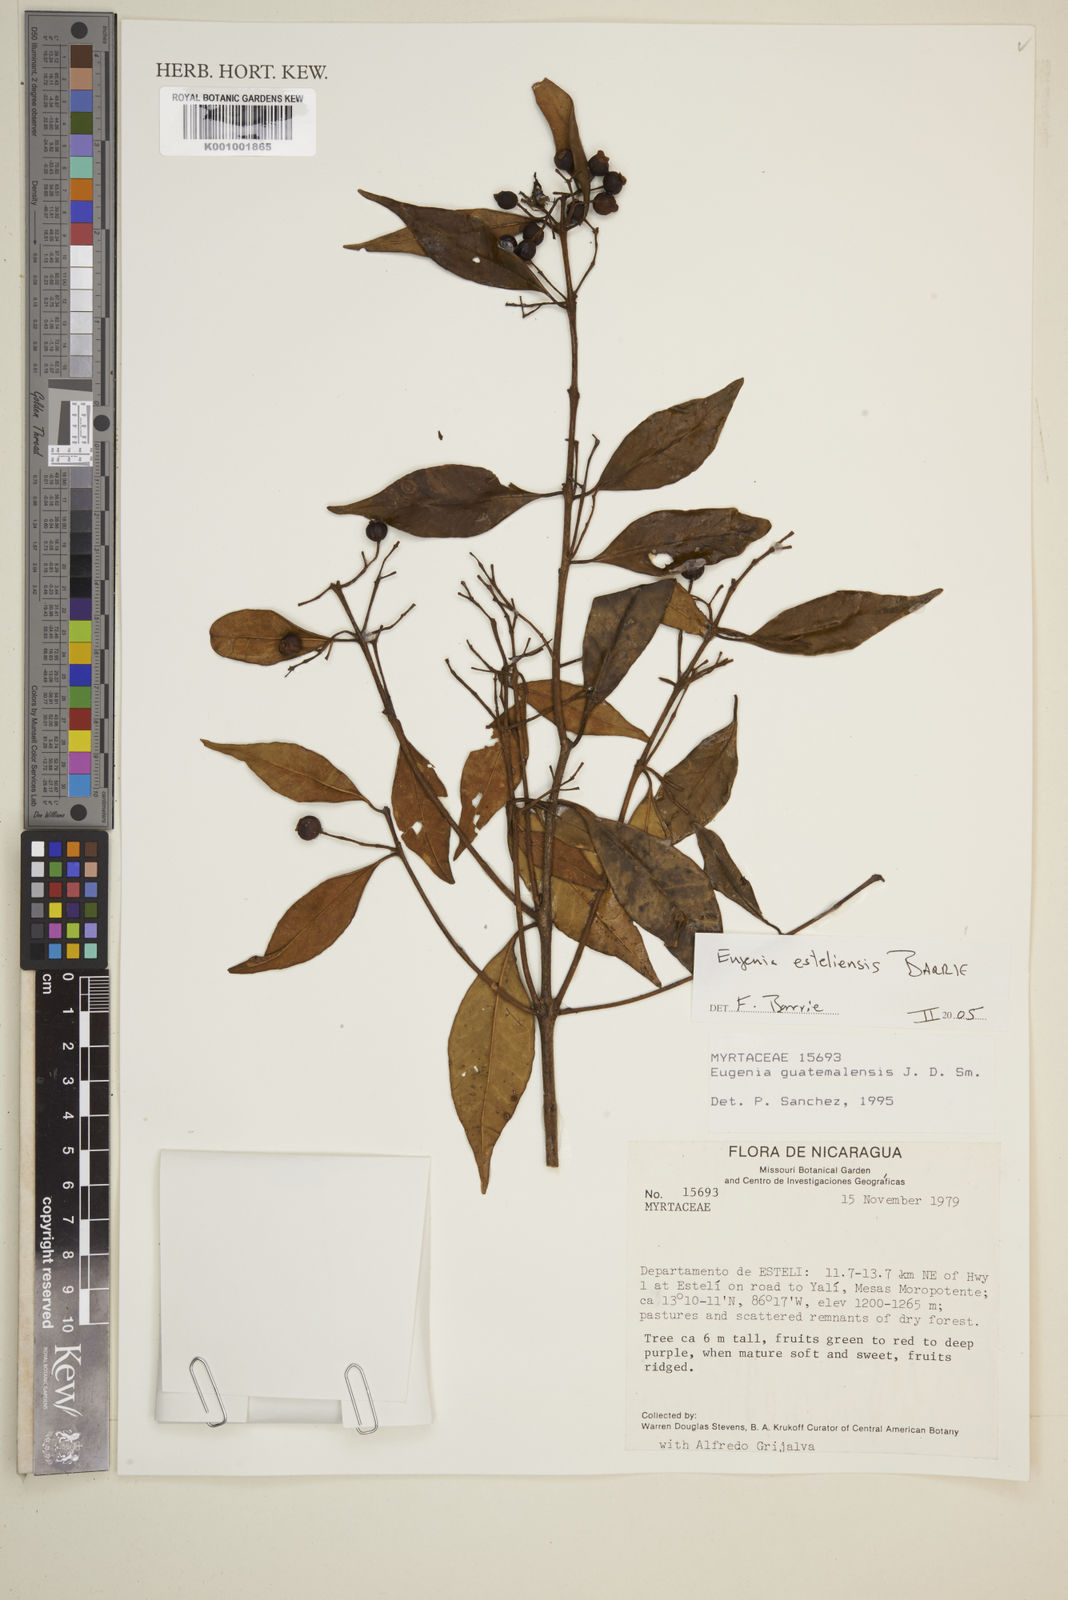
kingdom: Plantae
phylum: Tracheophyta
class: Magnoliopsida
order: Myrtales
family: Myrtaceae
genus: Eugenia
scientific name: Eugenia esteliensis
